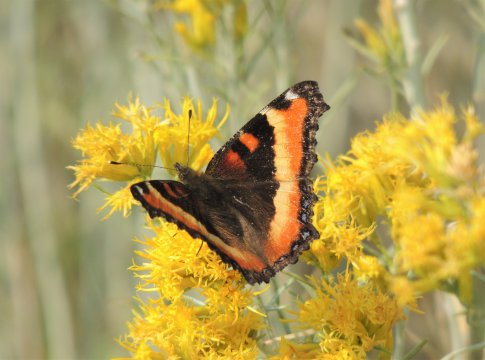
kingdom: Animalia
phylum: Arthropoda
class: Insecta
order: Lepidoptera
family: Nymphalidae
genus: Aglais
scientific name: Aglais milberti
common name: Milbert's Tortoiseshell
